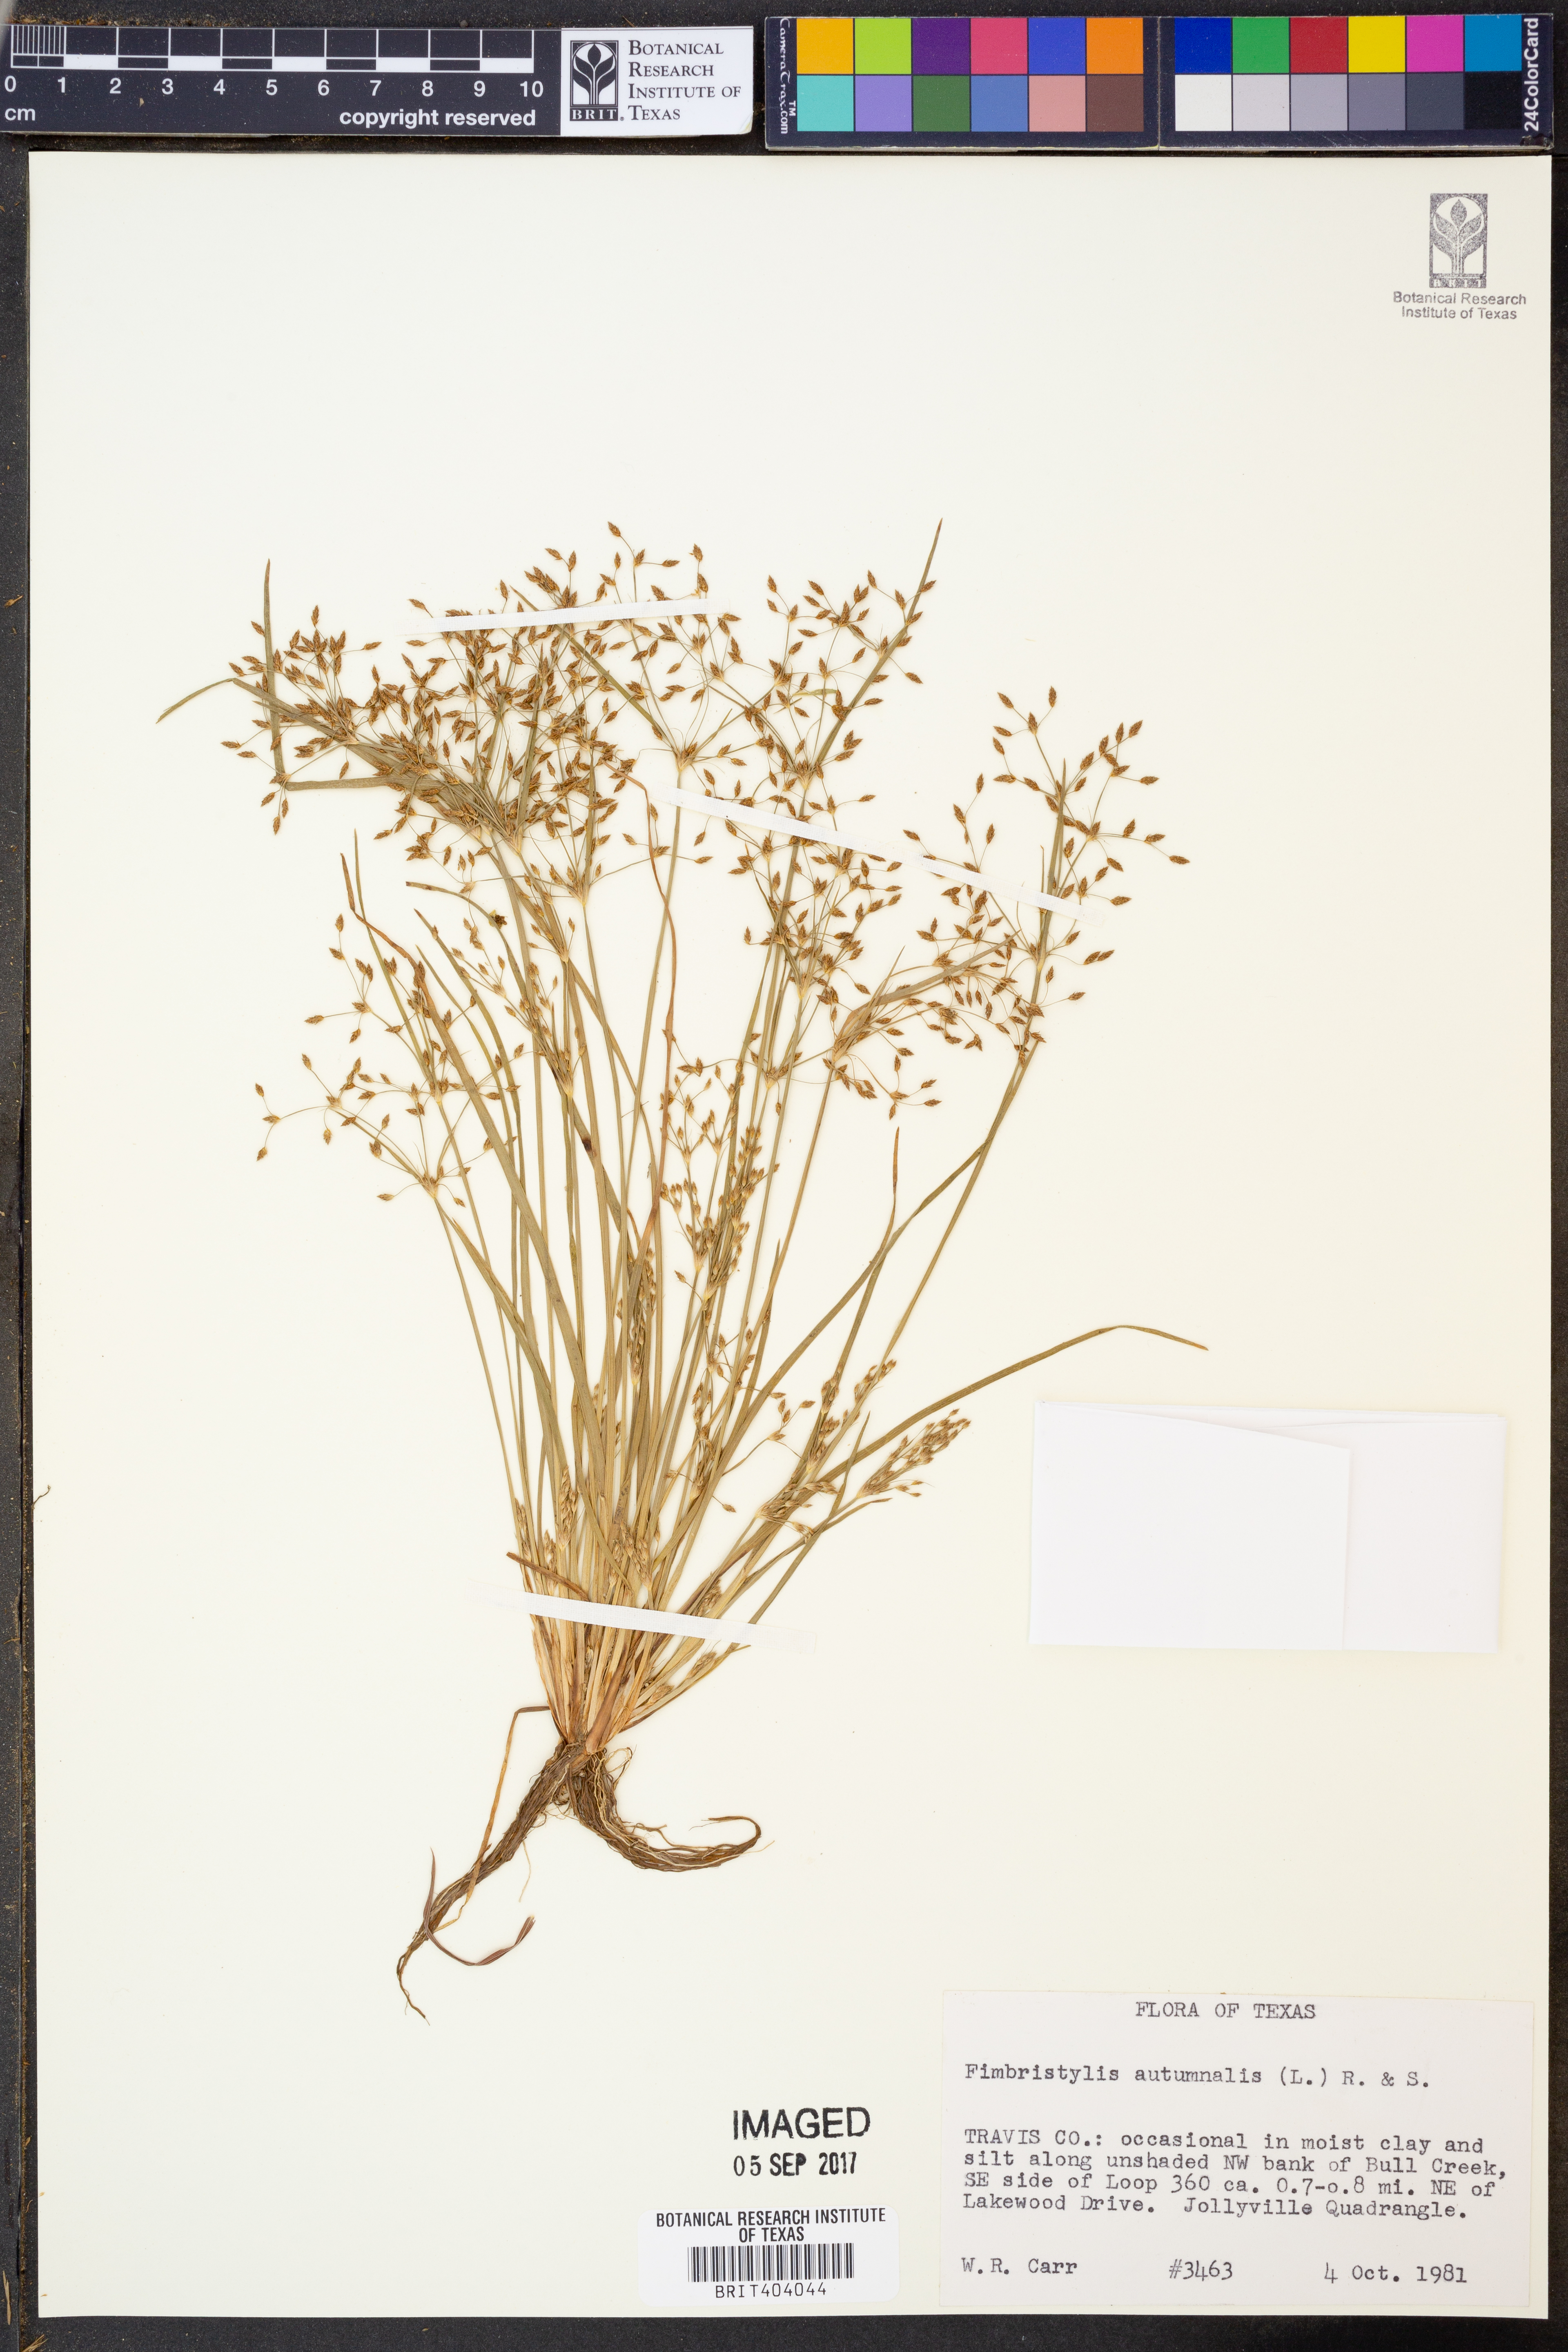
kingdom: Plantae
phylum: Tracheophyta
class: Liliopsida
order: Poales
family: Cyperaceae
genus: Fimbristylis
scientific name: Fimbristylis autumnalis
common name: Slender fimbristylis
